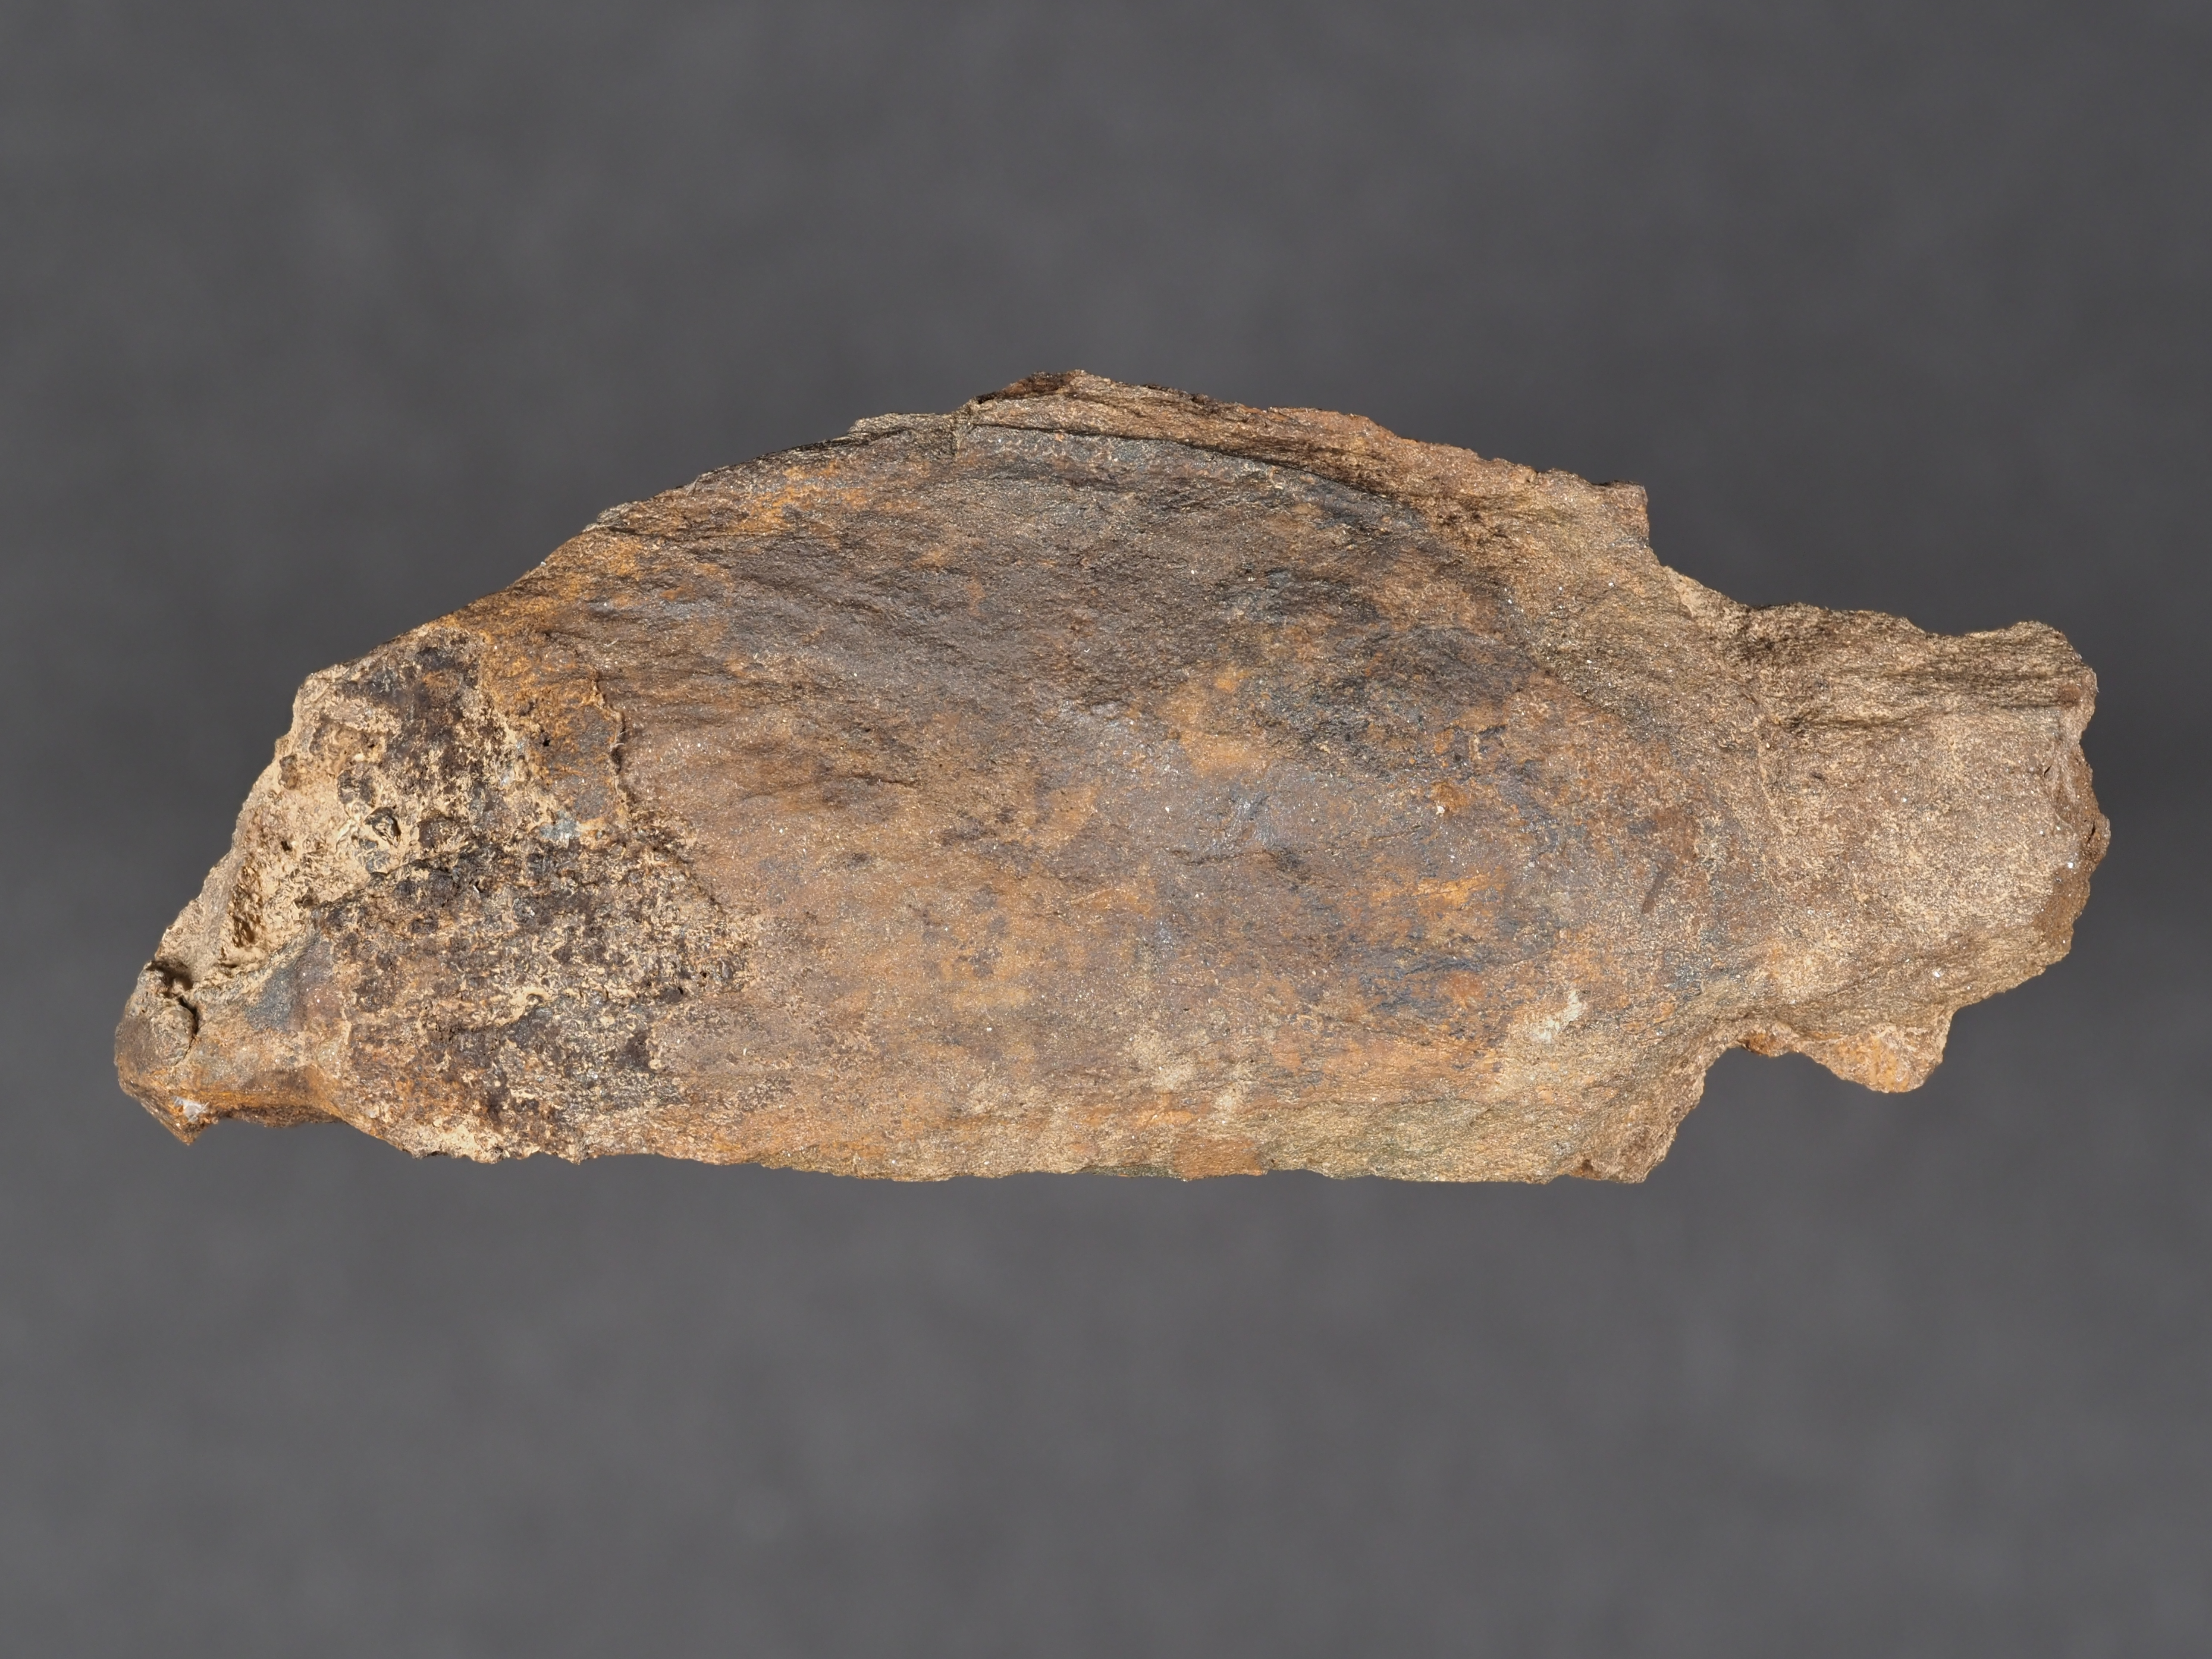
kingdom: Animalia
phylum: Brachiopoda
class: Rhynchonellata
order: Terebratulida
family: Centronellidae
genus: Meganteris
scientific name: Meganteris
